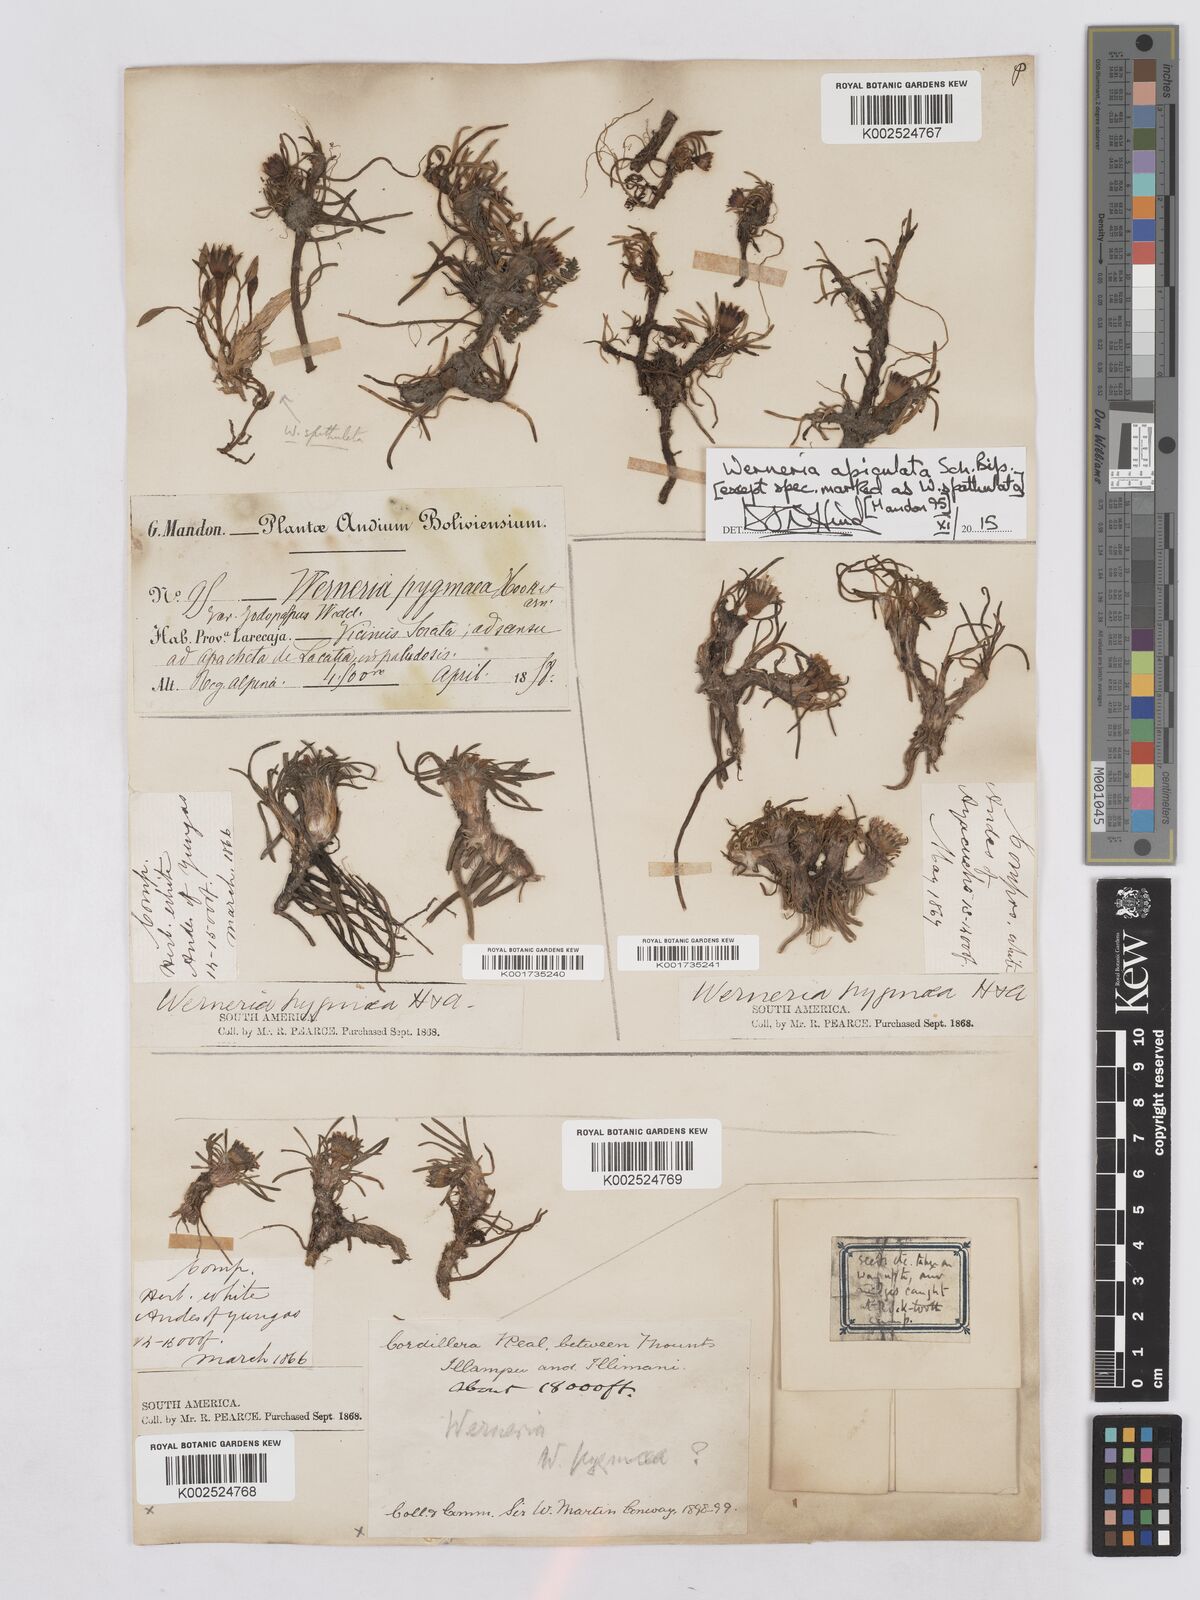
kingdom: Plantae
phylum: Tracheophyta
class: Magnoliopsida
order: Asterales
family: Asteraceae
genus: Rockhausenia
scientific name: Rockhausenia apiculata
